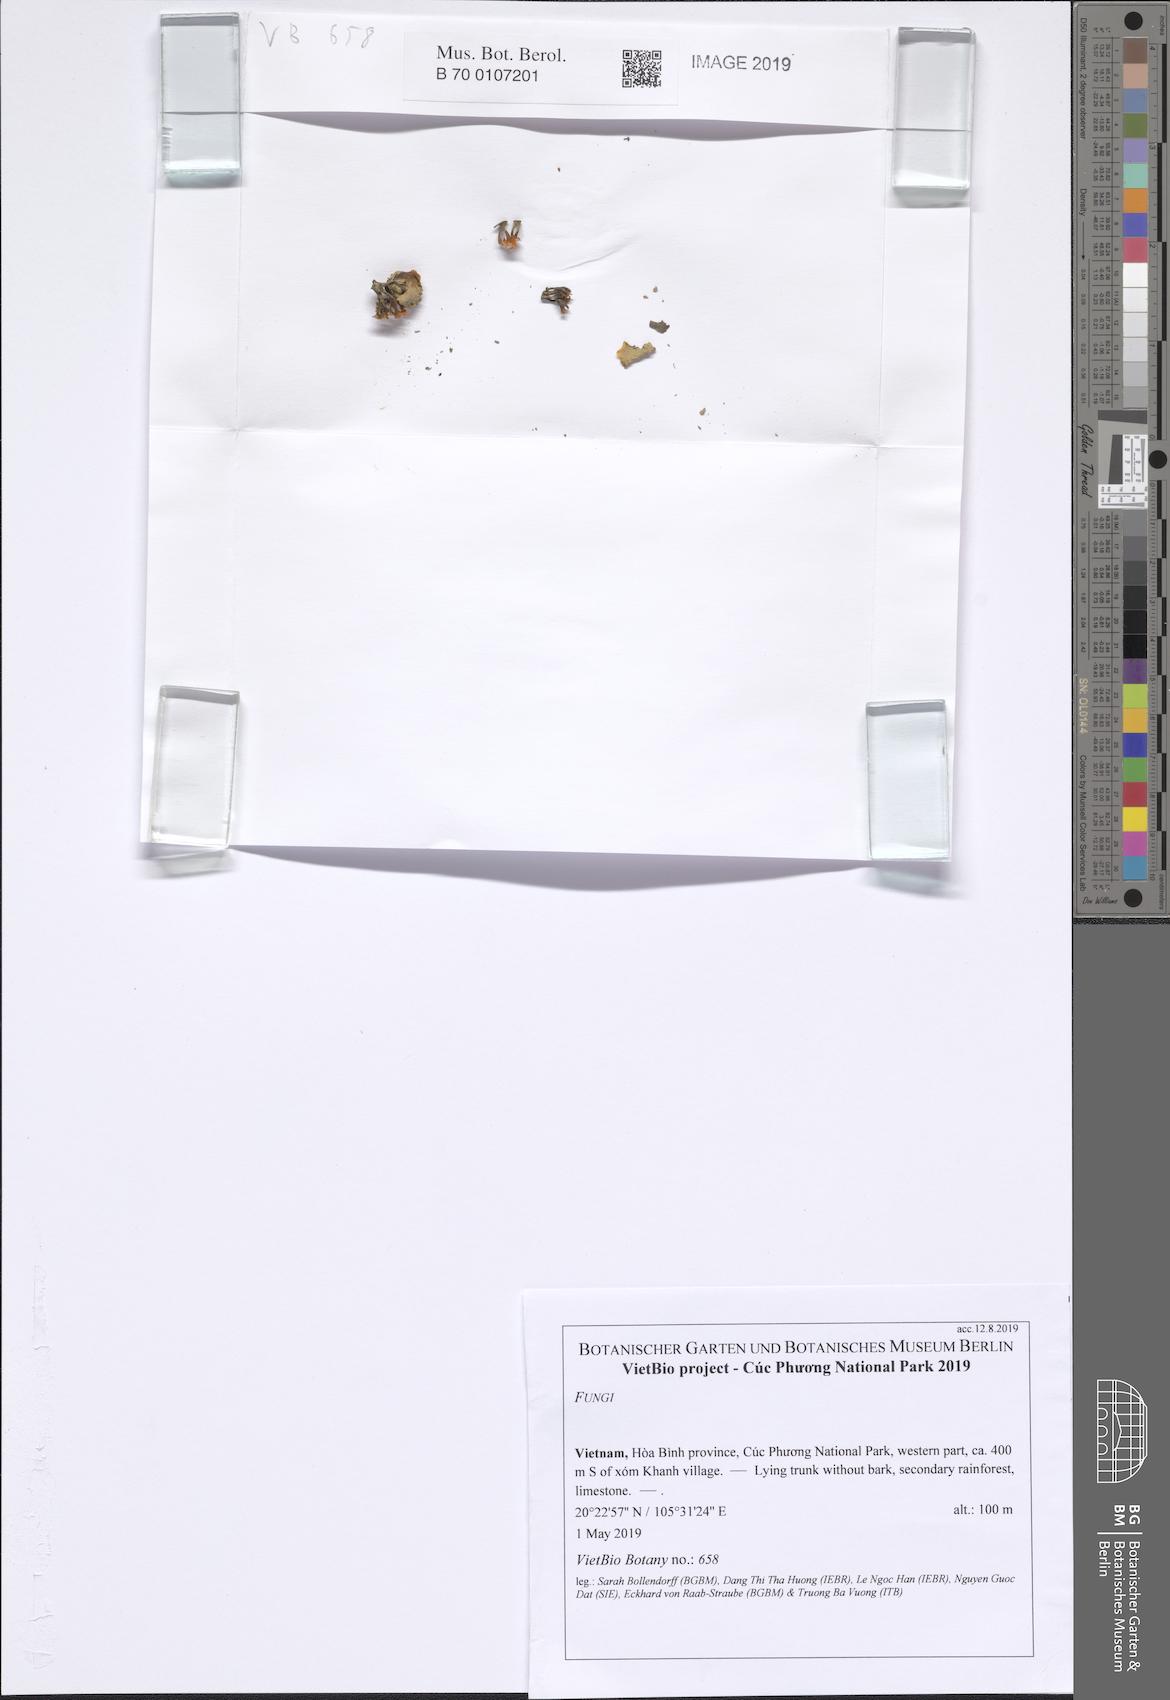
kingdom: Fungi
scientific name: Fungi
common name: Fungi
